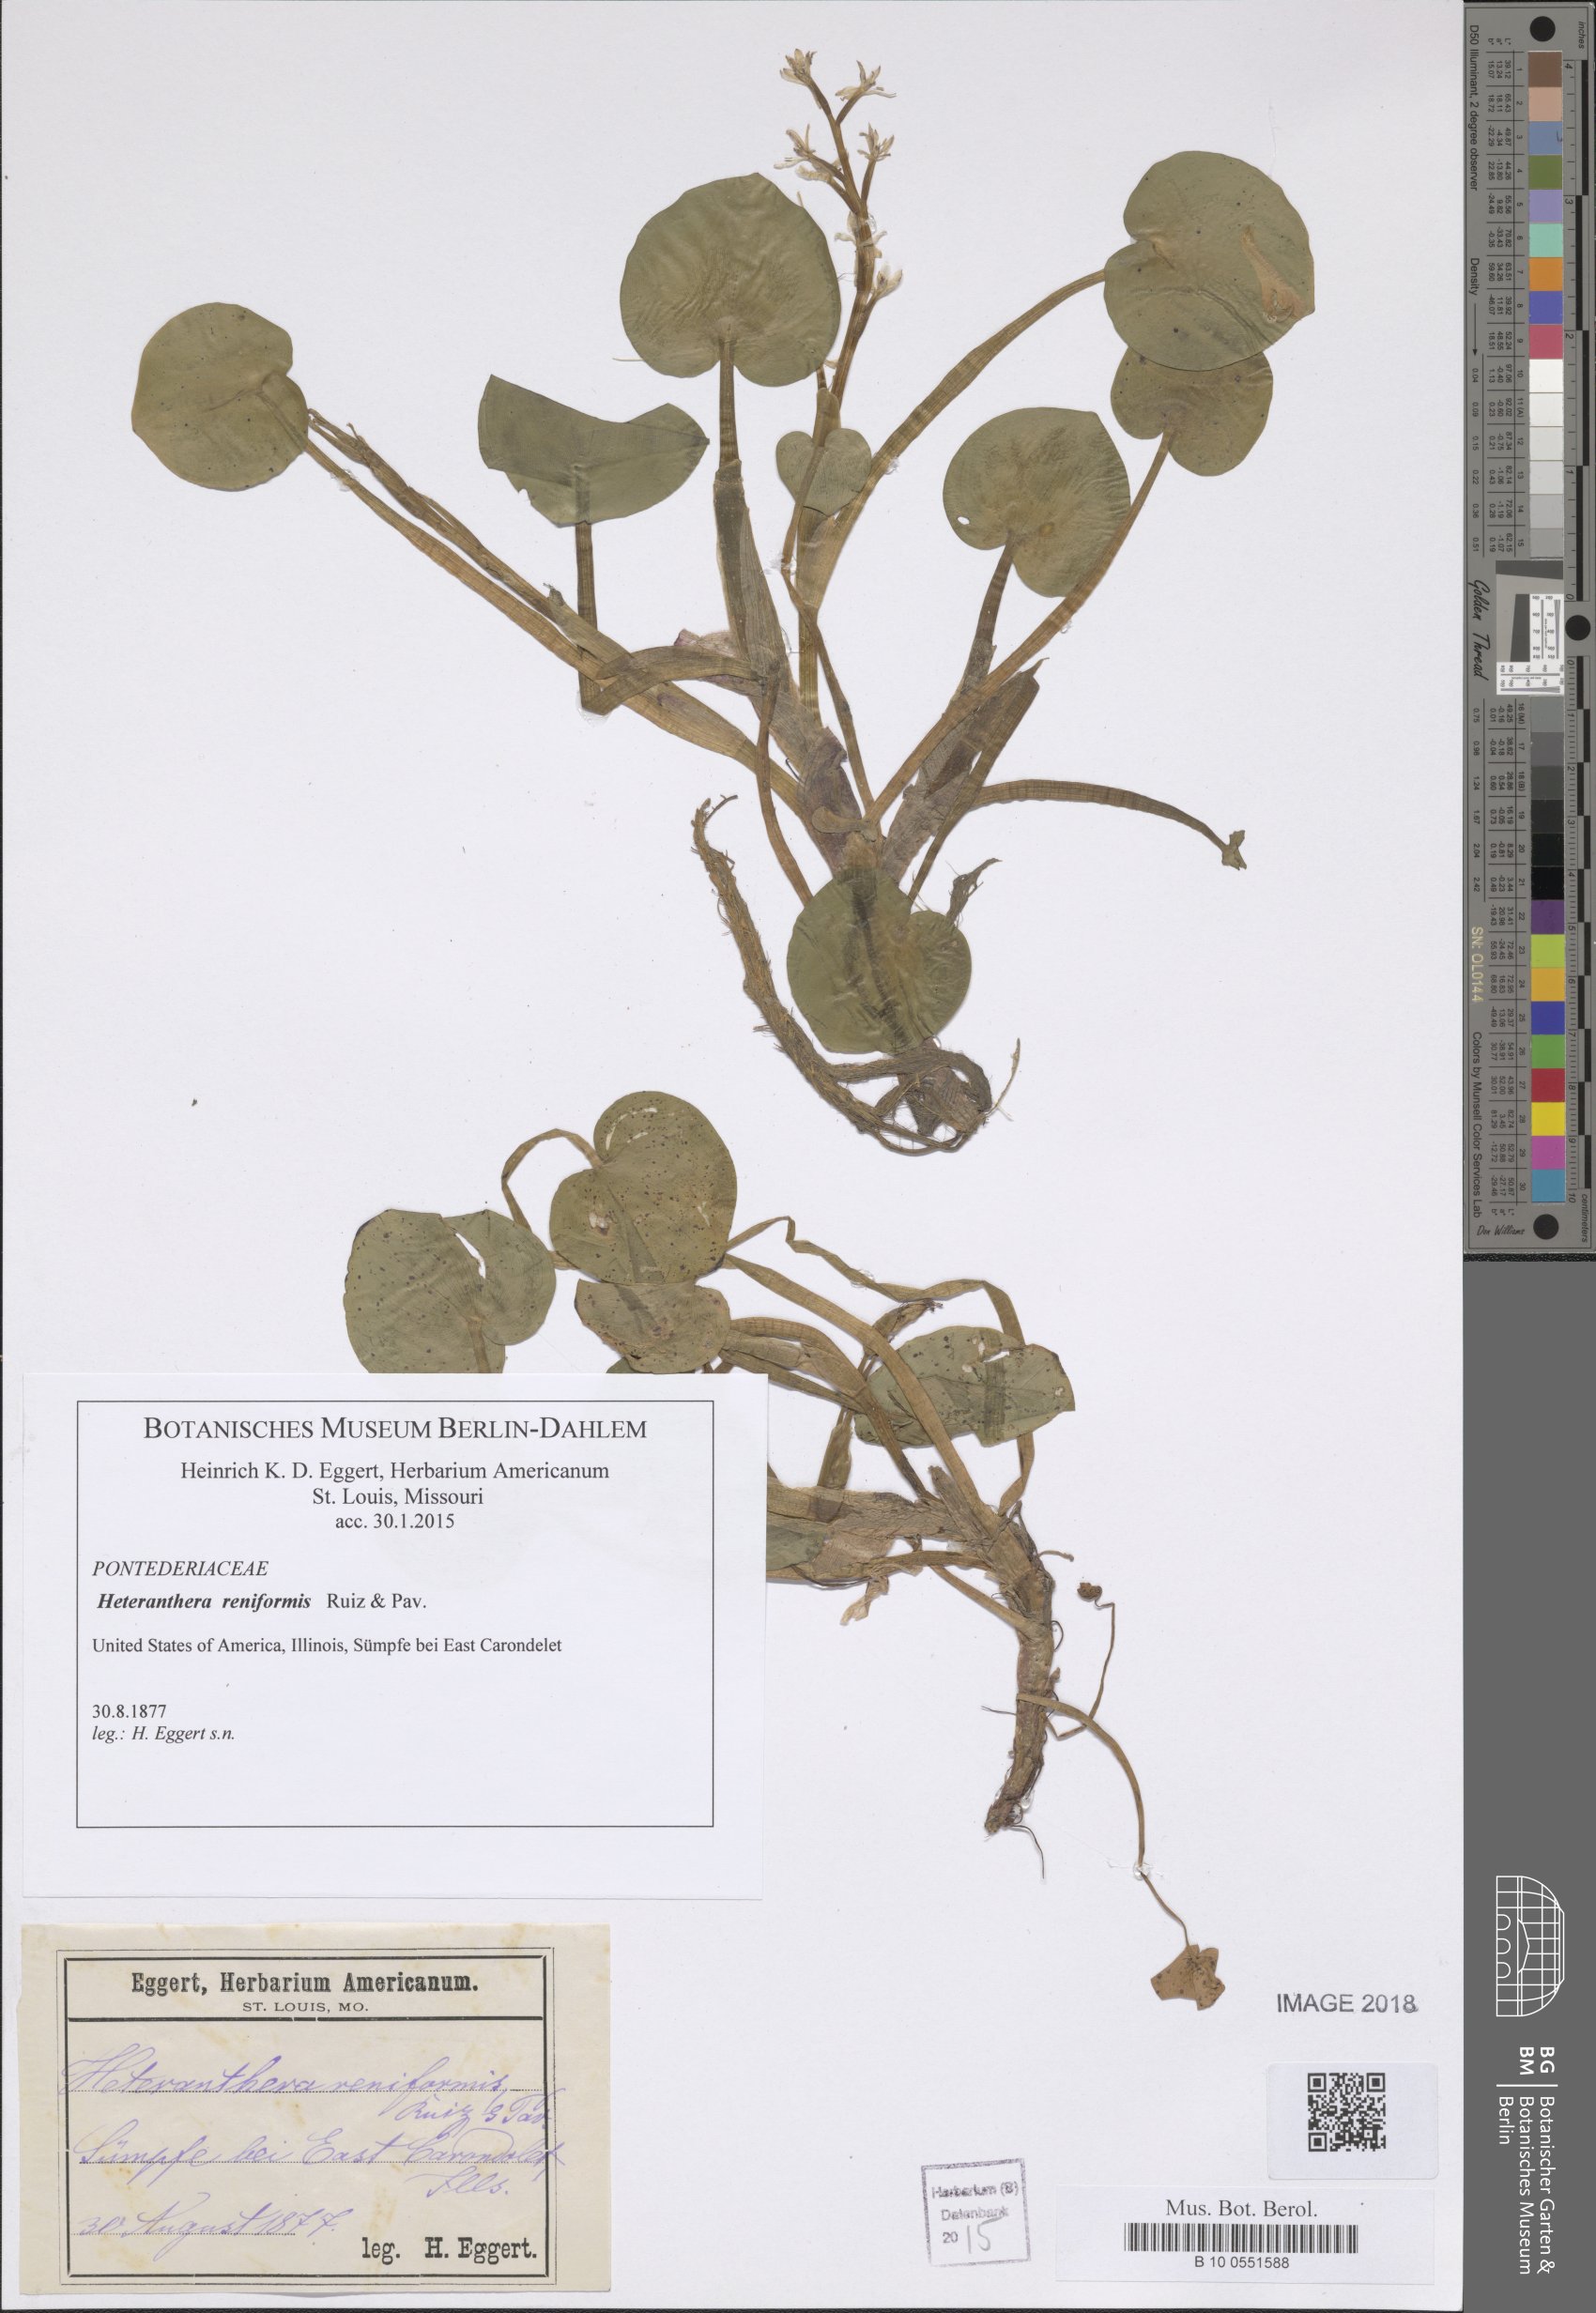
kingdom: Plantae
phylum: Tracheophyta
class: Liliopsida
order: Commelinales
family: Pontederiaceae
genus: Heteranthera
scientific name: Heteranthera reniformis
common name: Kidneyleaf mudplantain
